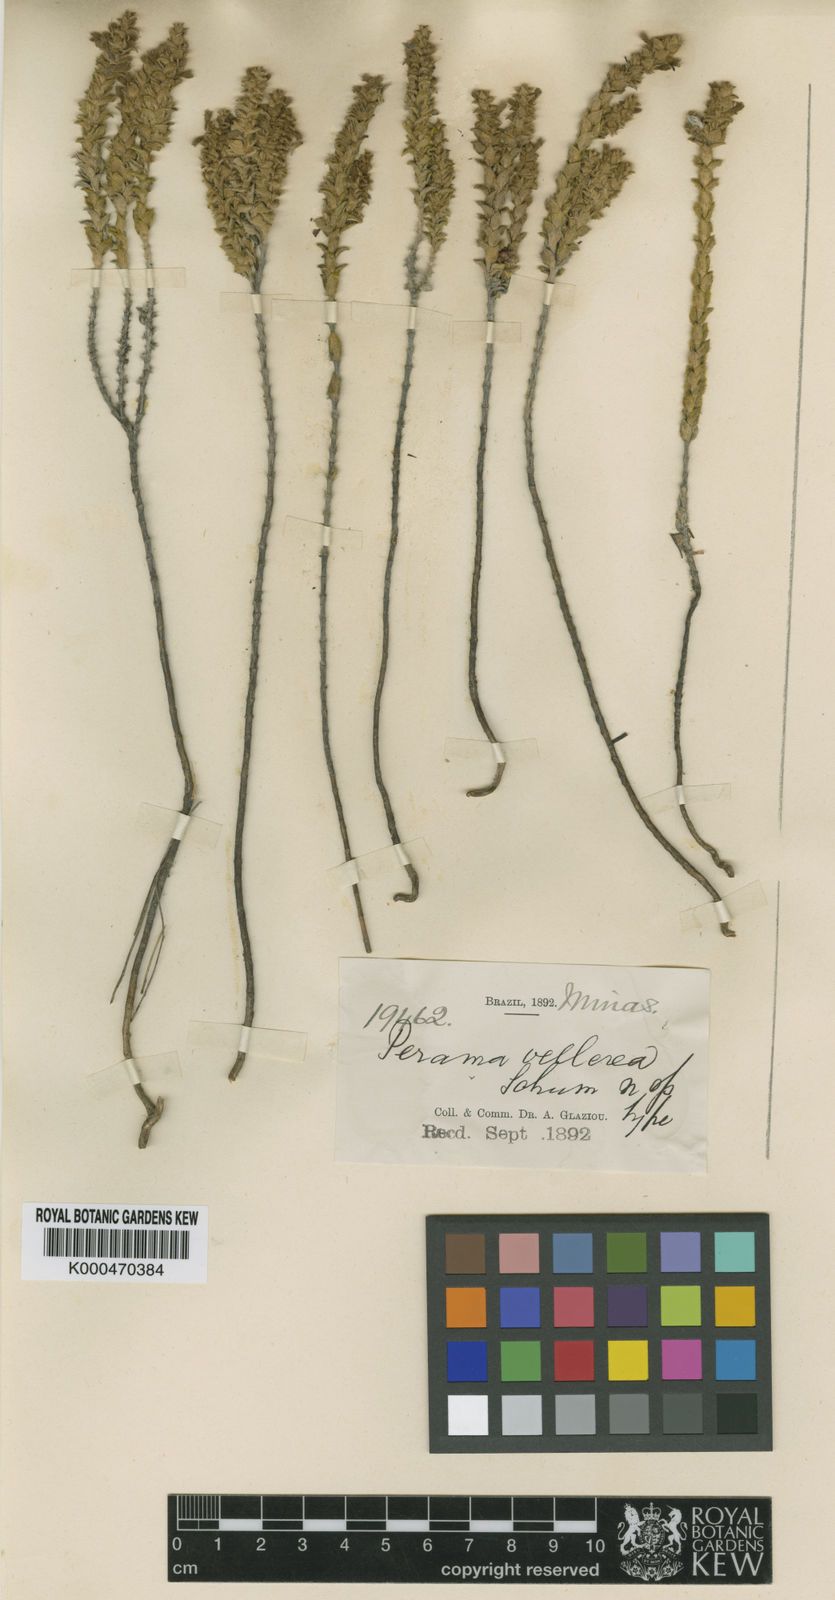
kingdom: Plantae
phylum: Tracheophyta
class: Magnoliopsida
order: Gentianales
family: Rubiaceae
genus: Perama
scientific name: Perama
